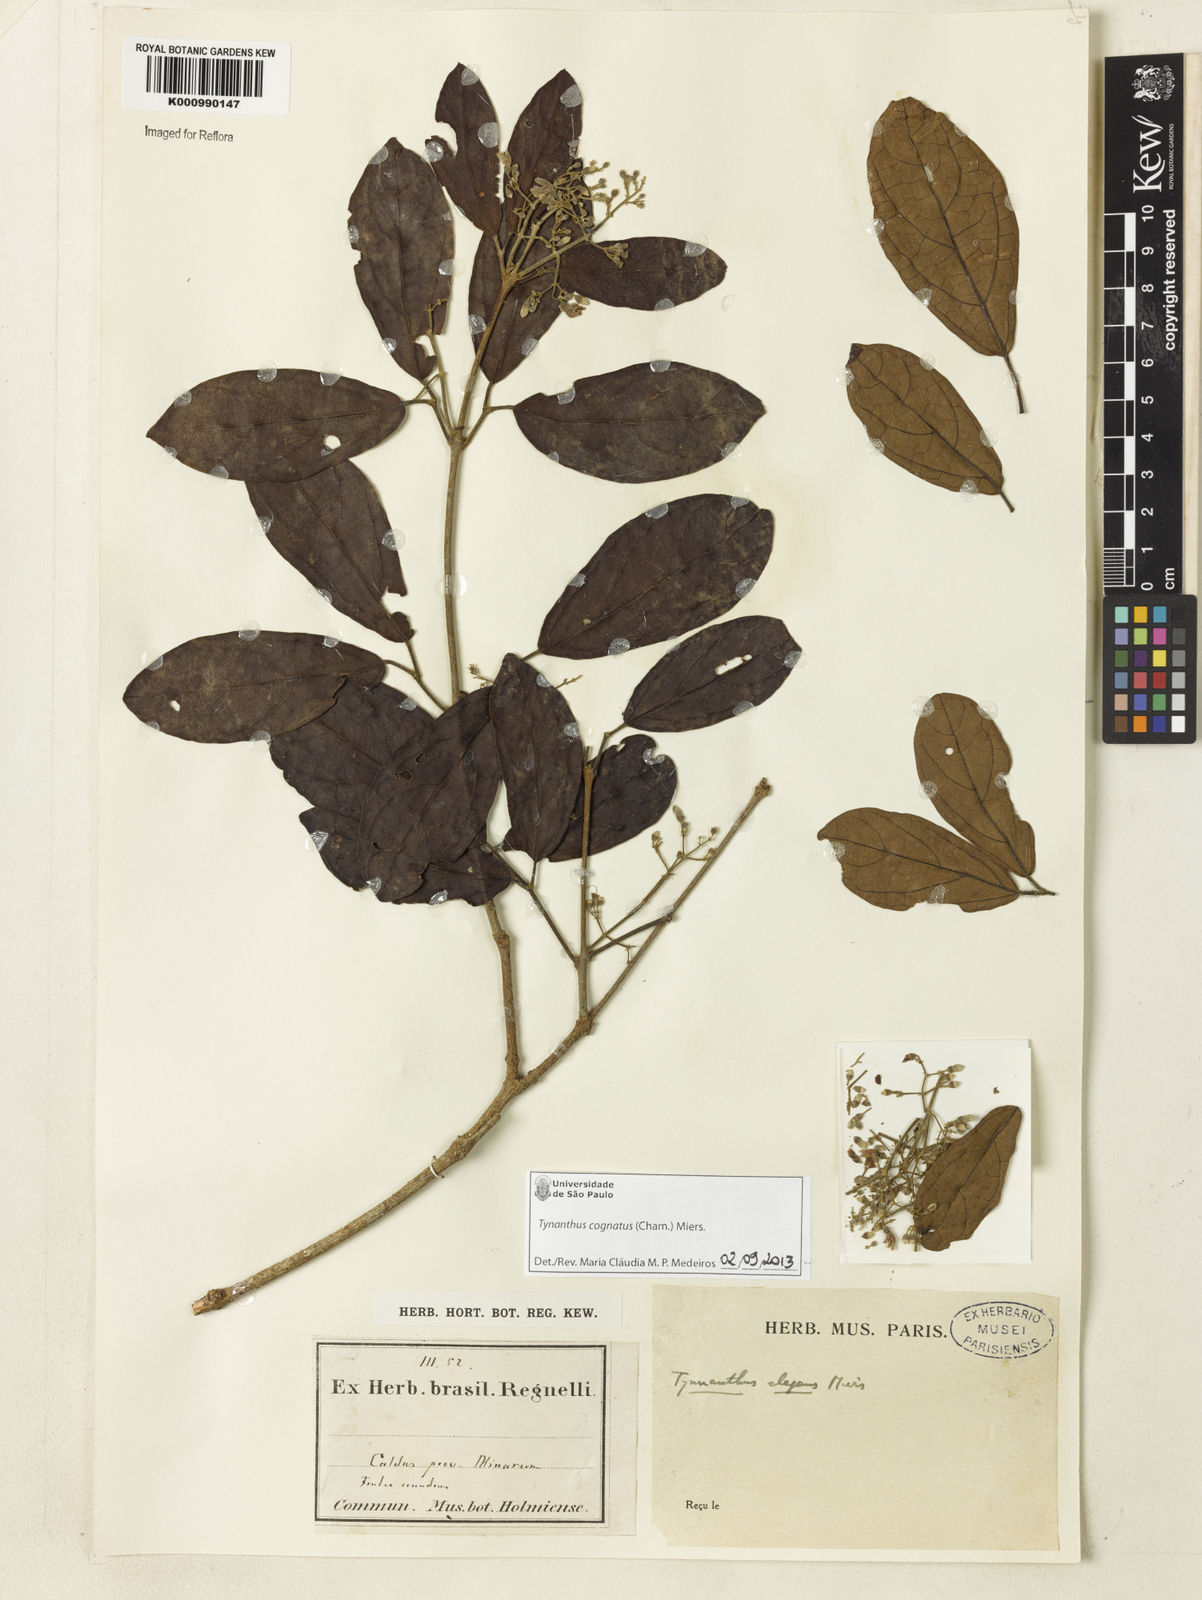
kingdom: Plantae
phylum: Tracheophyta
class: Magnoliopsida
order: Lamiales
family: Bignoniaceae
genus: Tynanthus
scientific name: Tynanthus cognatus
